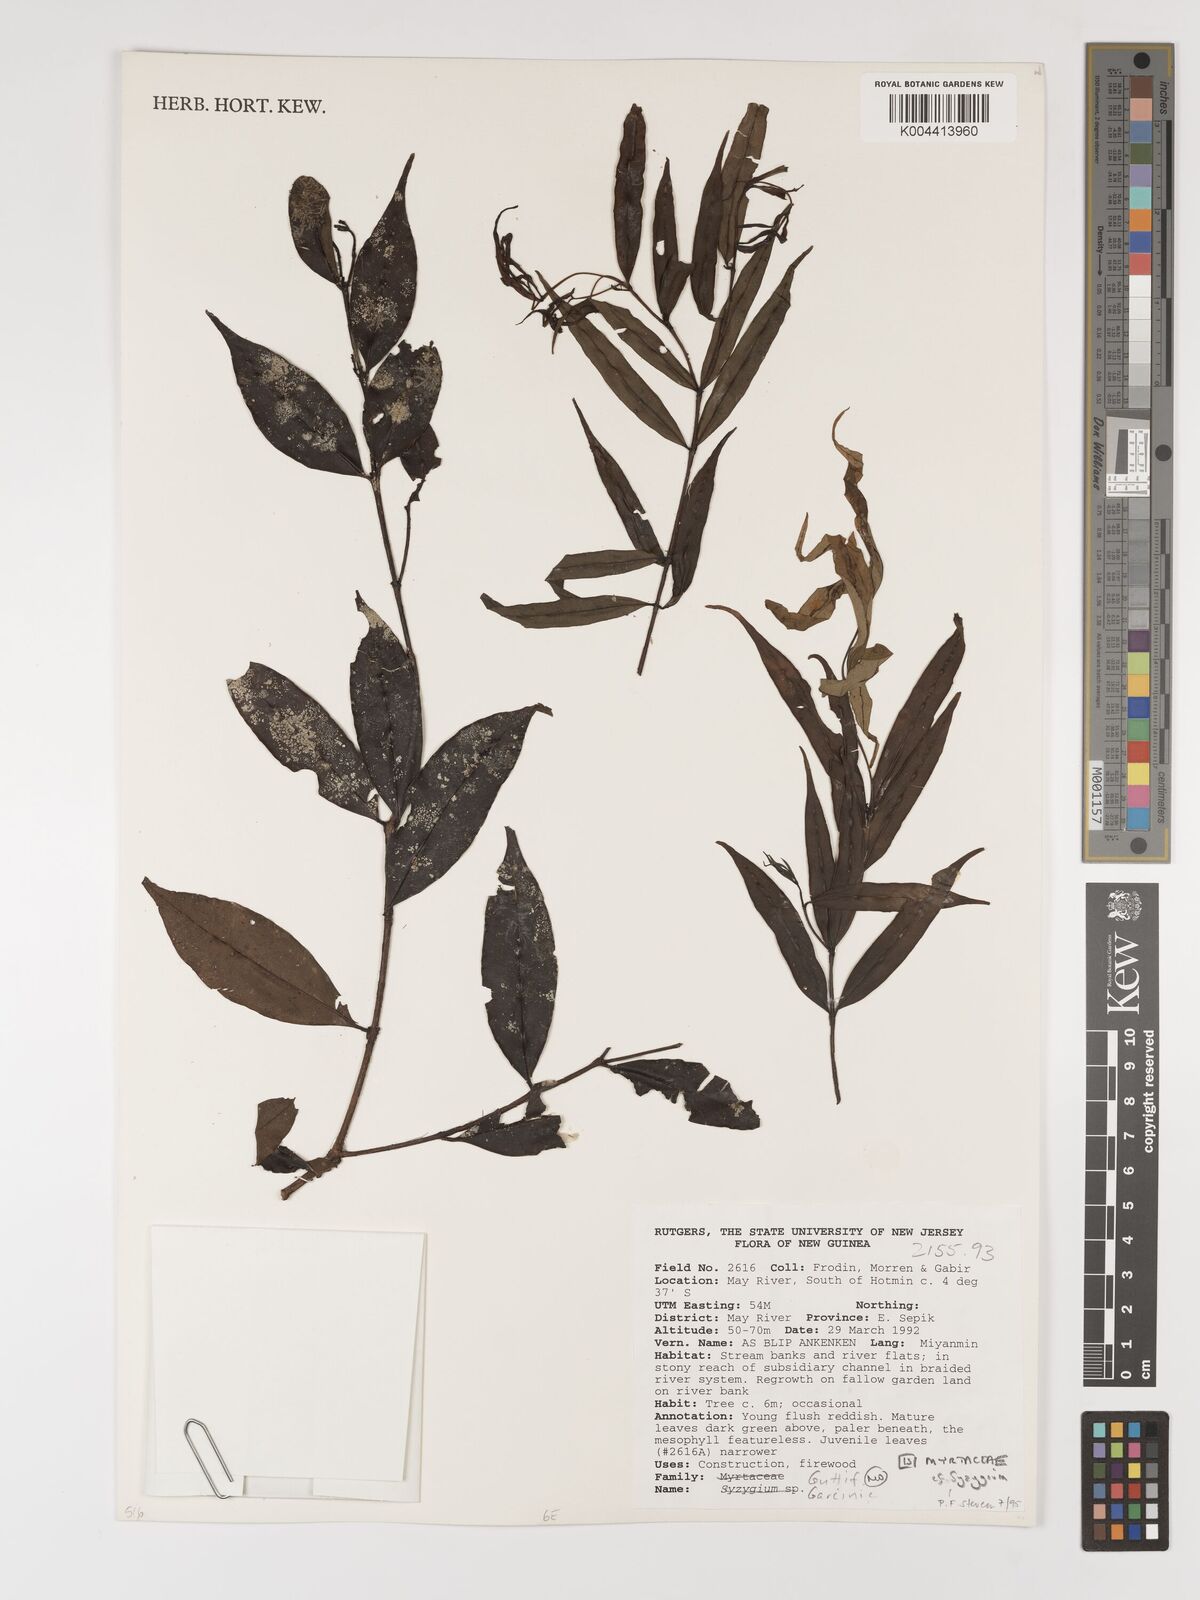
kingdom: Plantae
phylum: Tracheophyta
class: Magnoliopsida
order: Myrtales
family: Myrtaceae
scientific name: Myrtaceae
